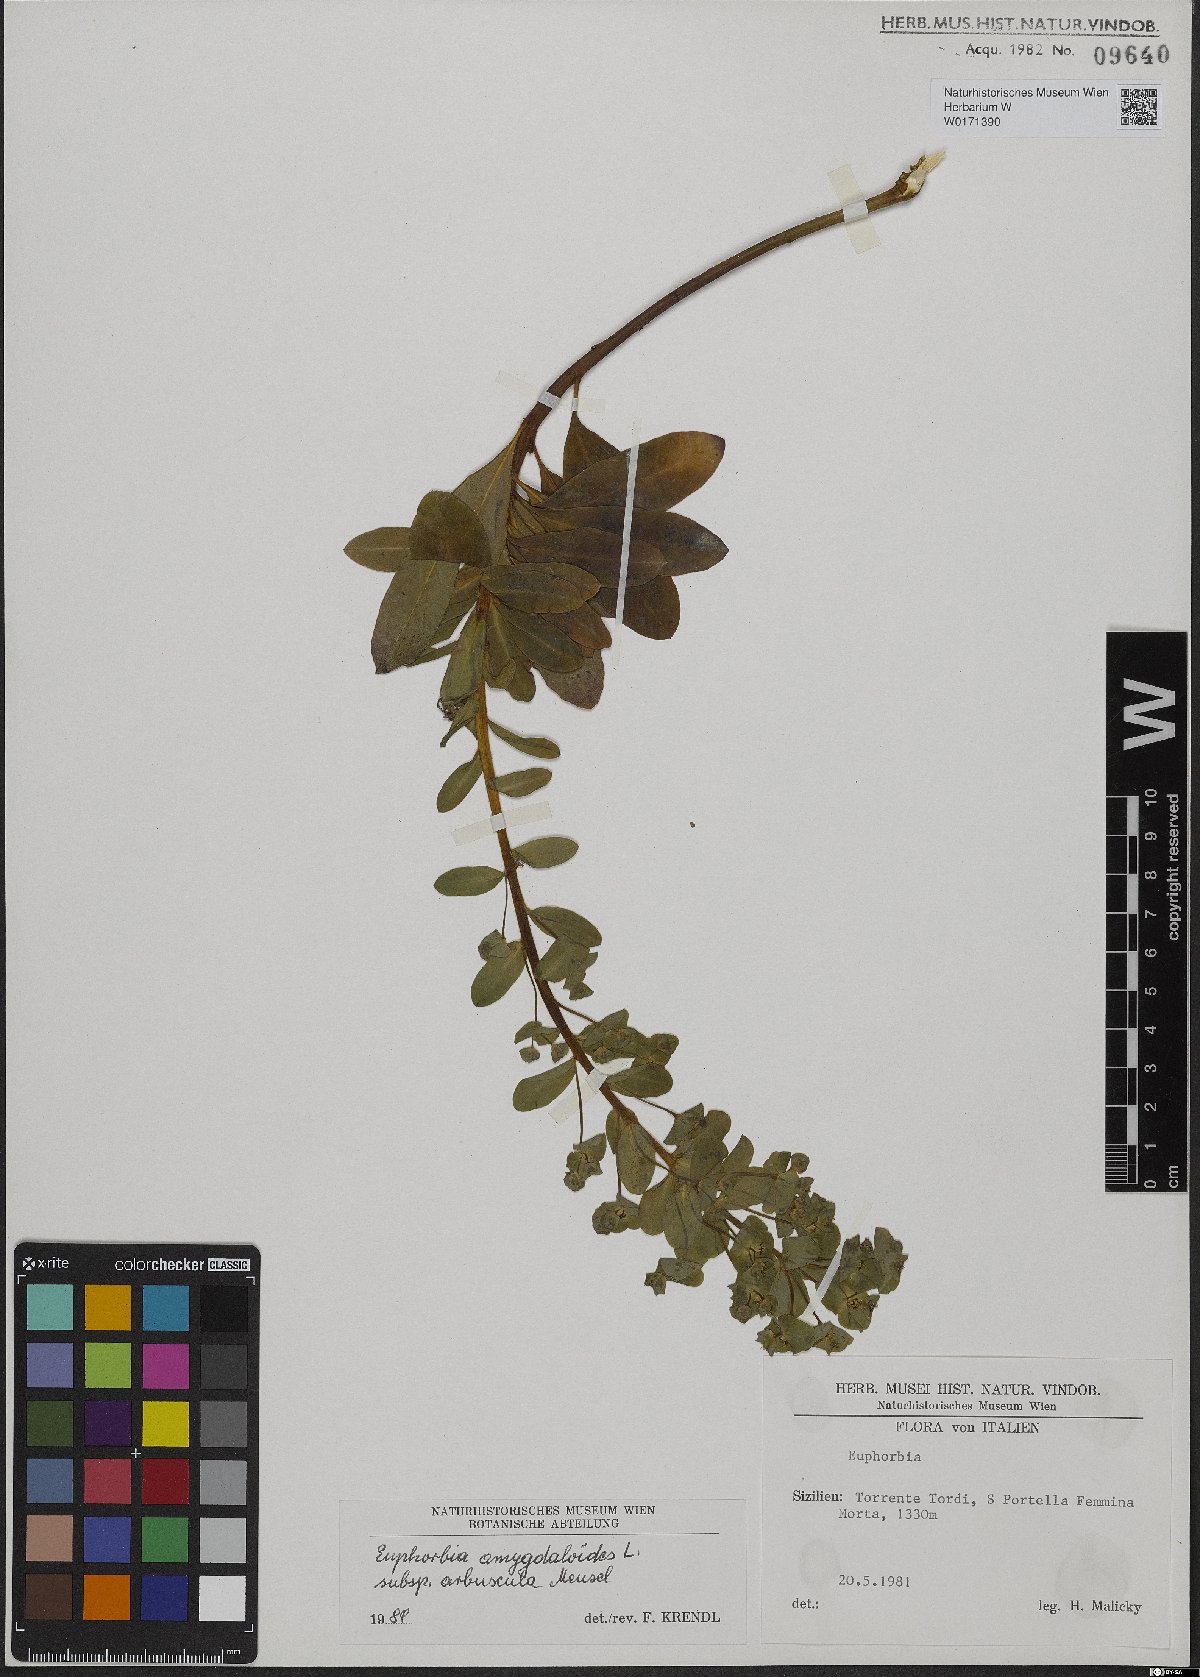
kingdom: Plantae
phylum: Tracheophyta
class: Magnoliopsida
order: Malpighiales
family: Euphorbiaceae
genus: Euphorbia
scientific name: Euphorbia meuselii
